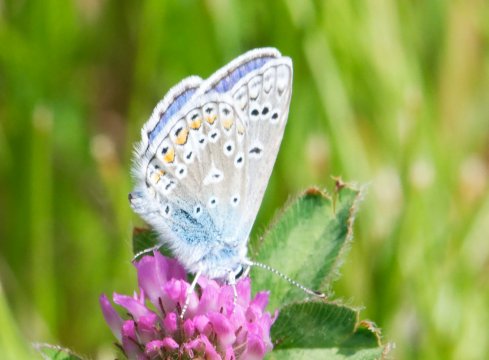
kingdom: Animalia
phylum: Arthropoda
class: Insecta
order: Lepidoptera
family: Lycaenidae
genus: Polyommatus
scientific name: Polyommatus icarus
